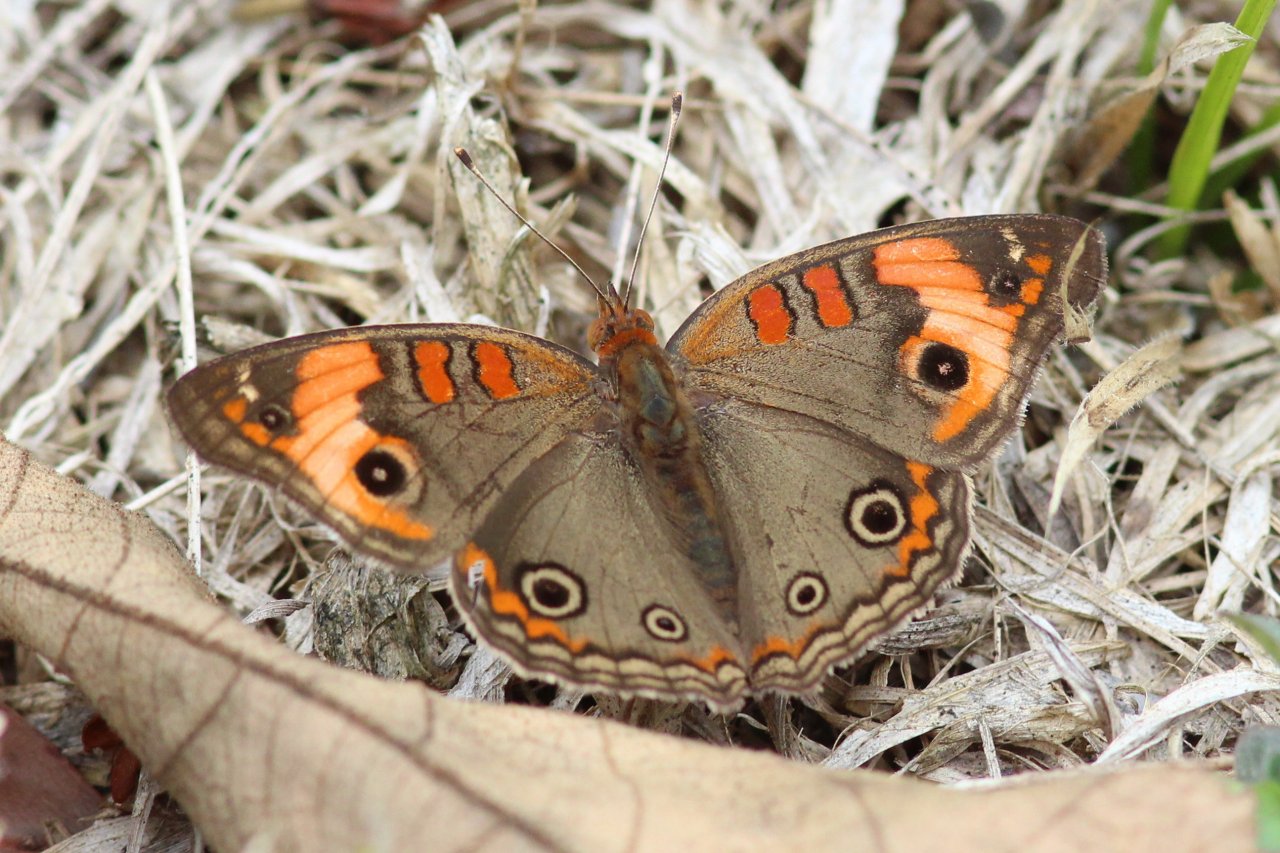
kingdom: Animalia
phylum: Arthropoda
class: Insecta
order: Lepidoptera
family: Nymphalidae
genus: Junonia
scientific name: Junonia evarete
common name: Mangrove Buckeye
